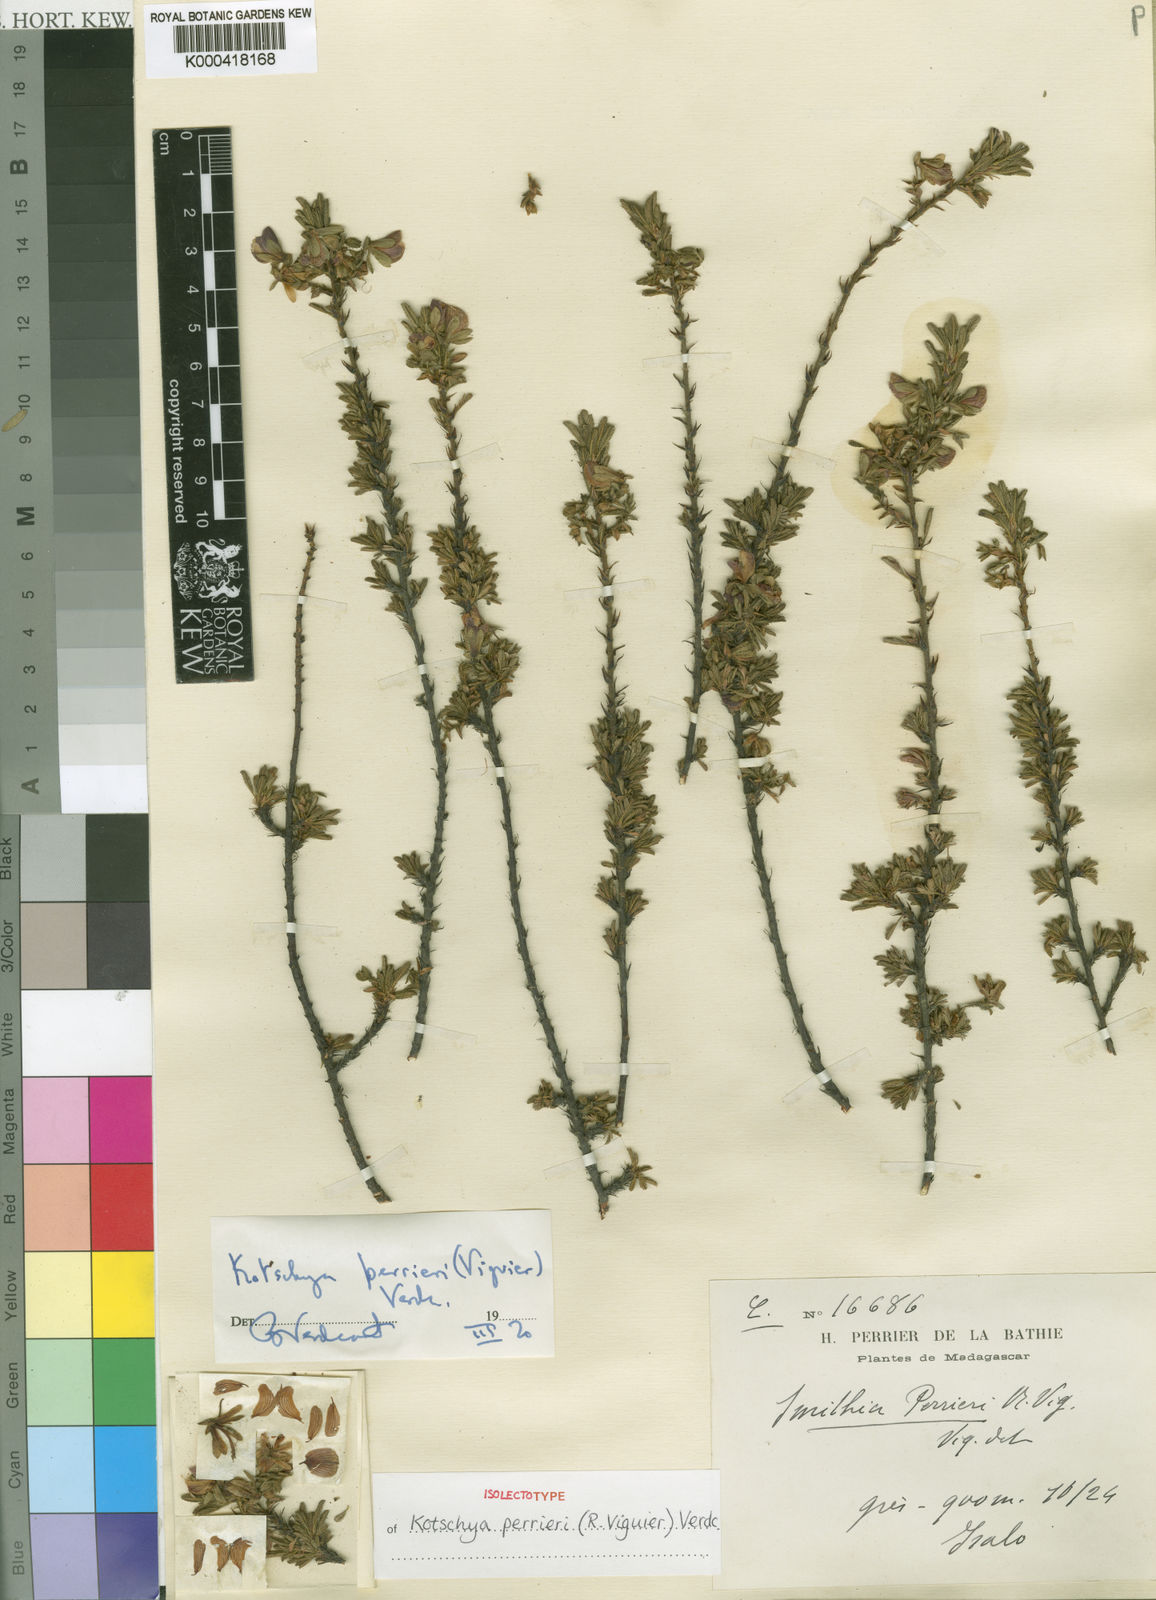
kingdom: Plantae
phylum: Tracheophyta
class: Magnoliopsida
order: Fabales
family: Fabaceae
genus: Kotschya
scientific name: Kotschya perrieri
